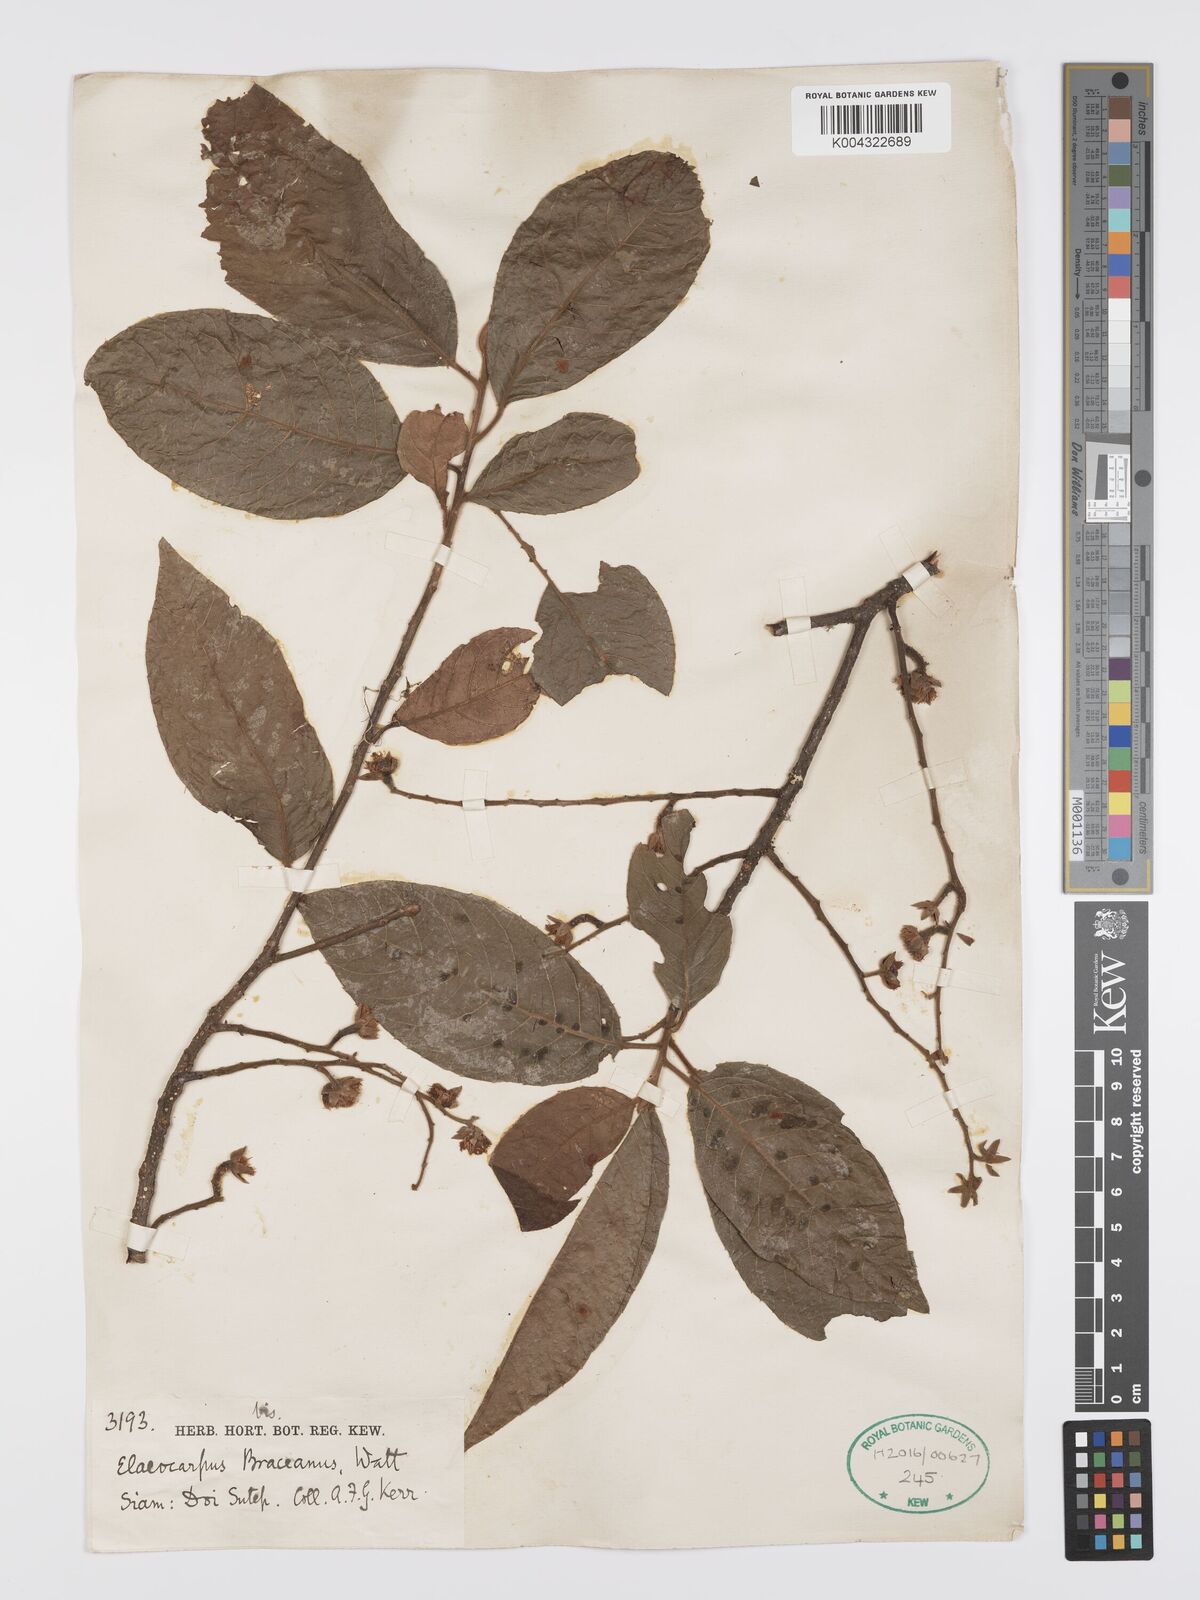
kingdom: Plantae
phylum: Tracheophyta
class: Magnoliopsida
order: Oxalidales
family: Elaeocarpaceae
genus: Elaeocarpus
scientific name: Elaeocarpus braceanus
